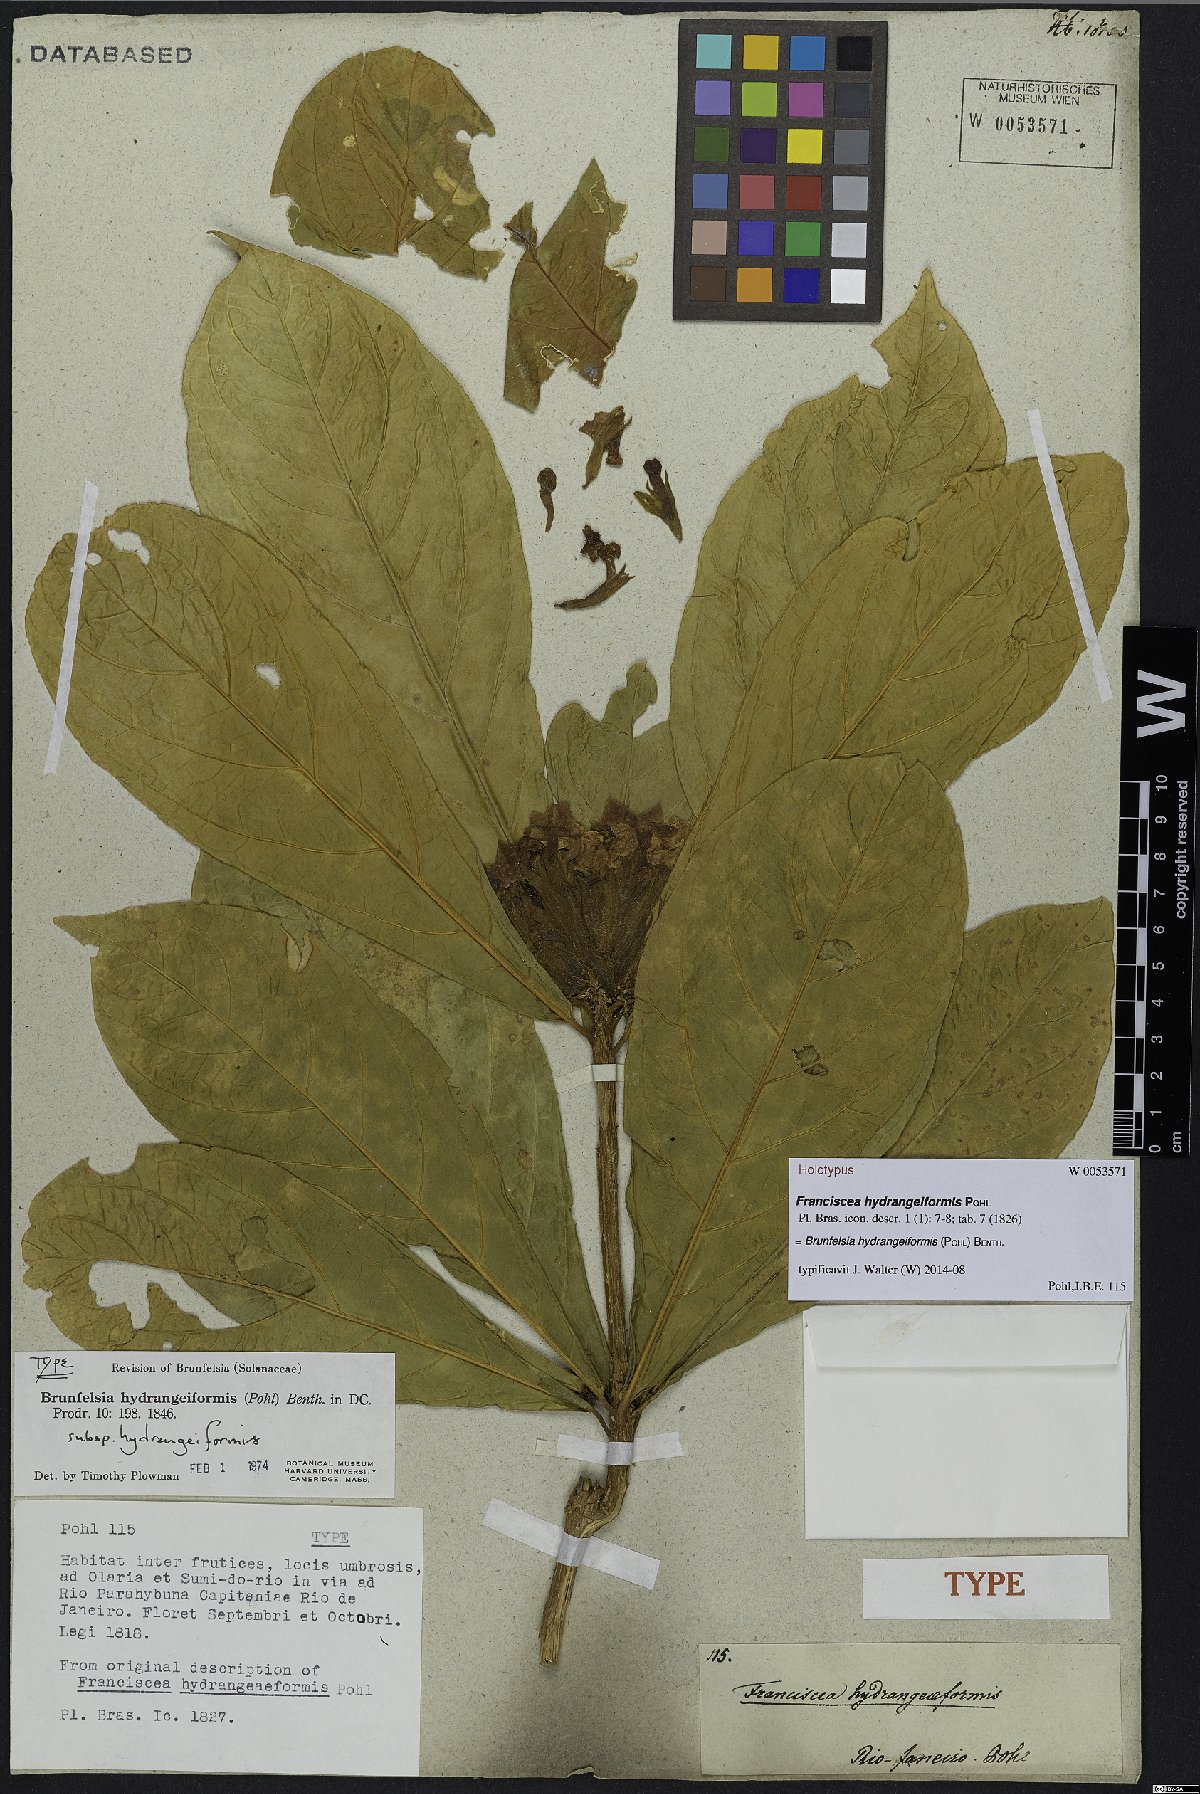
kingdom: Plantae
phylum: Tracheophyta
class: Magnoliopsida
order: Solanales
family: Solanaceae
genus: Brunfelsia
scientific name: Brunfelsia hydrangeiformis
